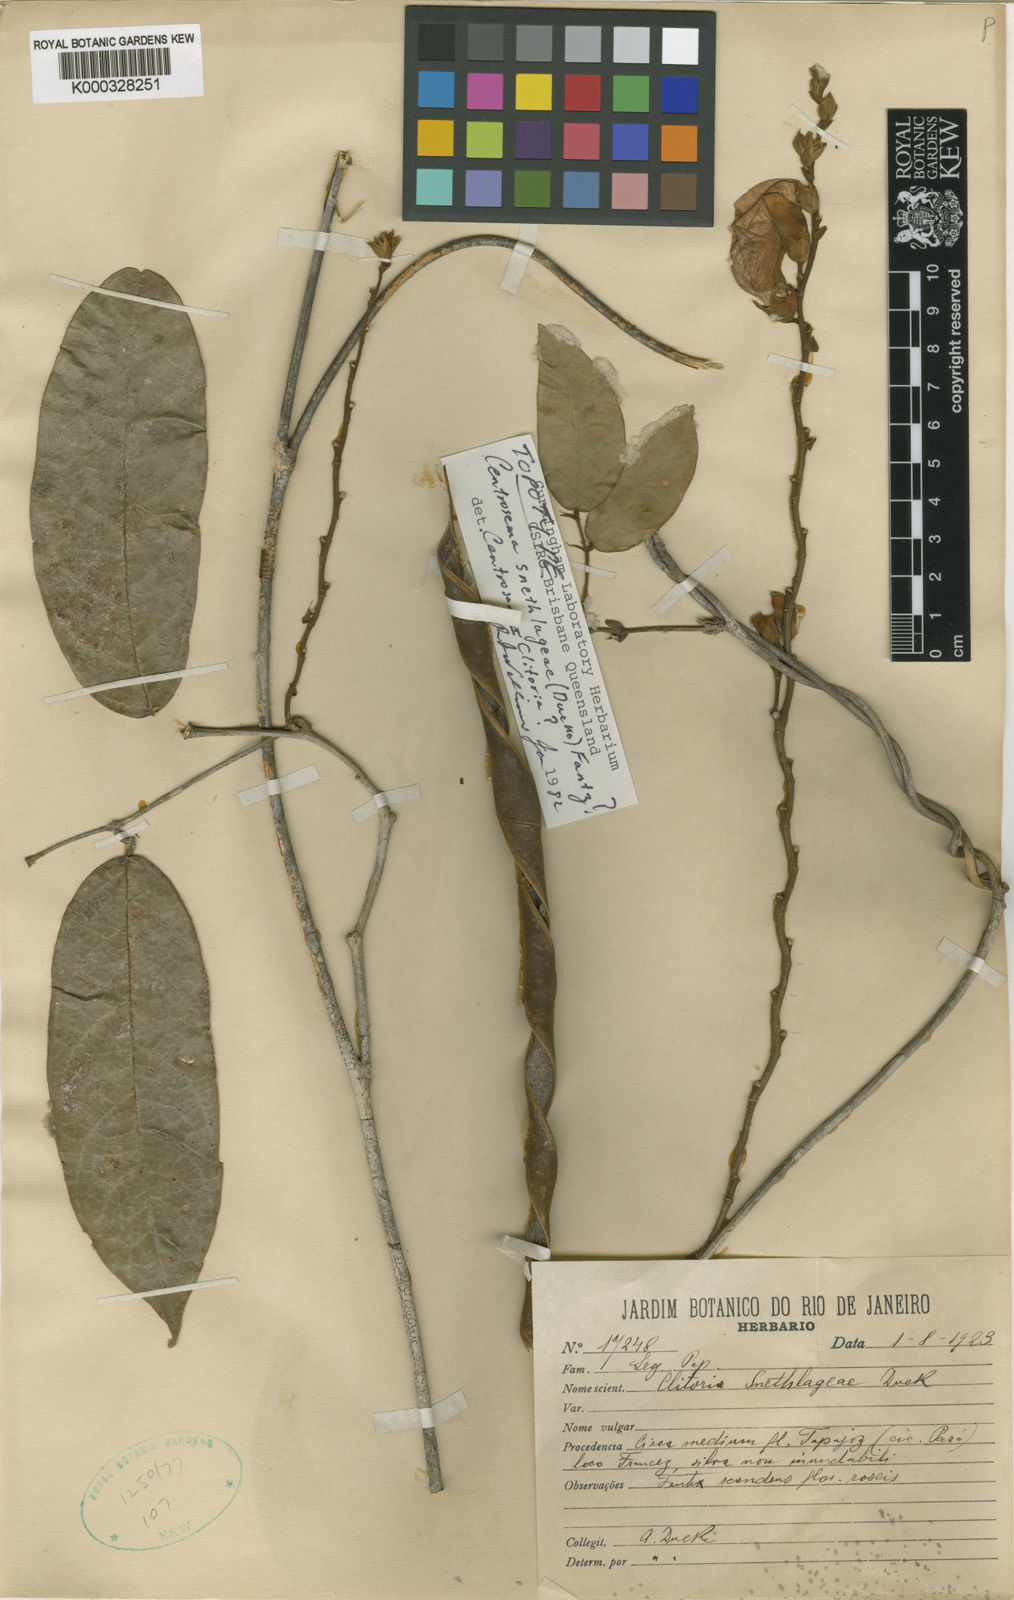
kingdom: Plantae
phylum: Tracheophyta
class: Magnoliopsida
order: Fabales
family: Fabaceae
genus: Centrosema
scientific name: Centrosema
